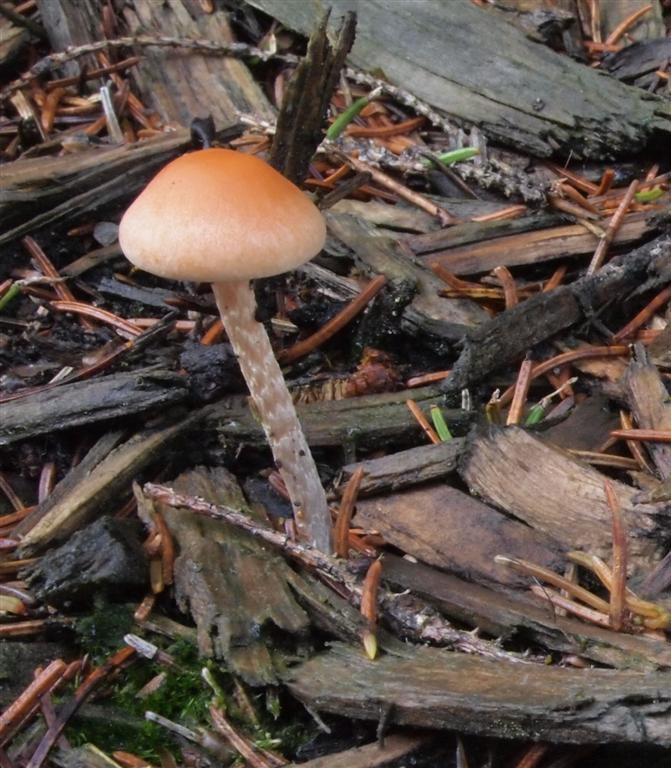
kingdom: Fungi
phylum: Basidiomycota
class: Agaricomycetes
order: Agaricales
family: Strophariaceae
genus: Hypholoma
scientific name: Hypholoma marginatum
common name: enlig svovlhat
